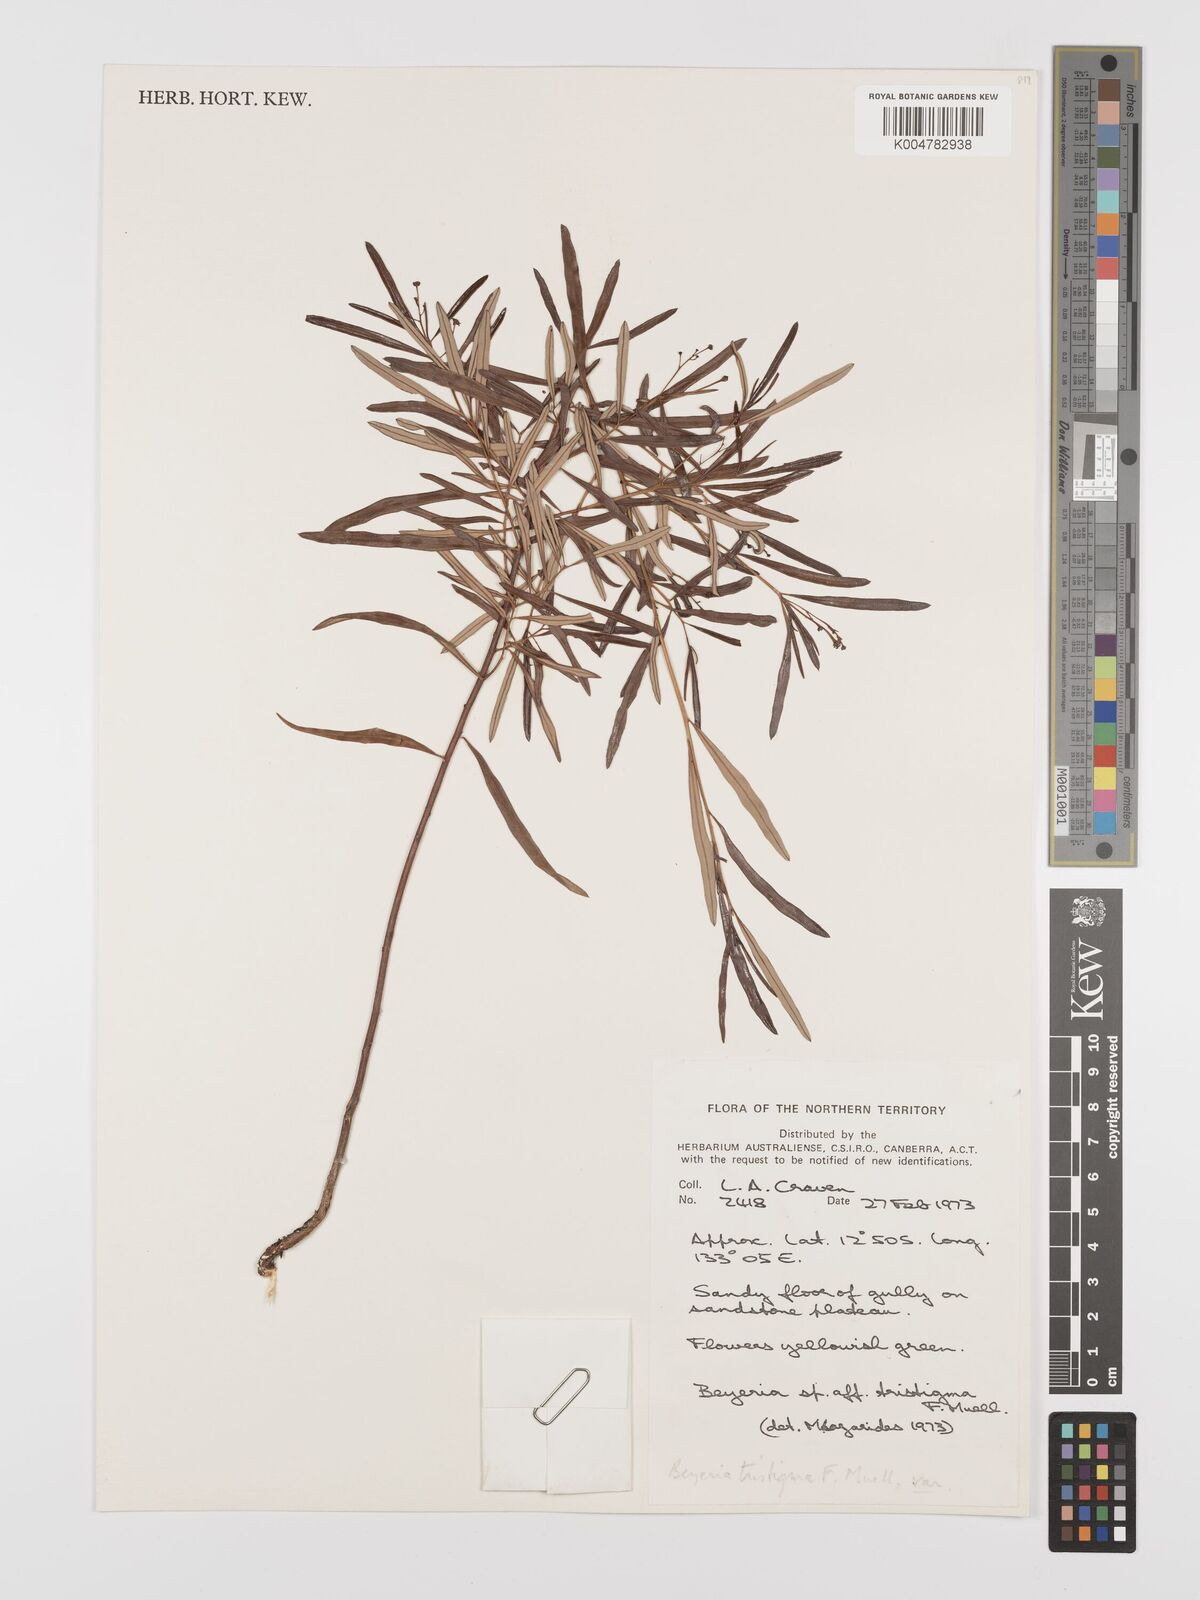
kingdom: Plantae
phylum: Tracheophyta
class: Magnoliopsida
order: Malpighiales
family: Euphorbiaceae
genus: Shonia
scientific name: Shonia tristigma
